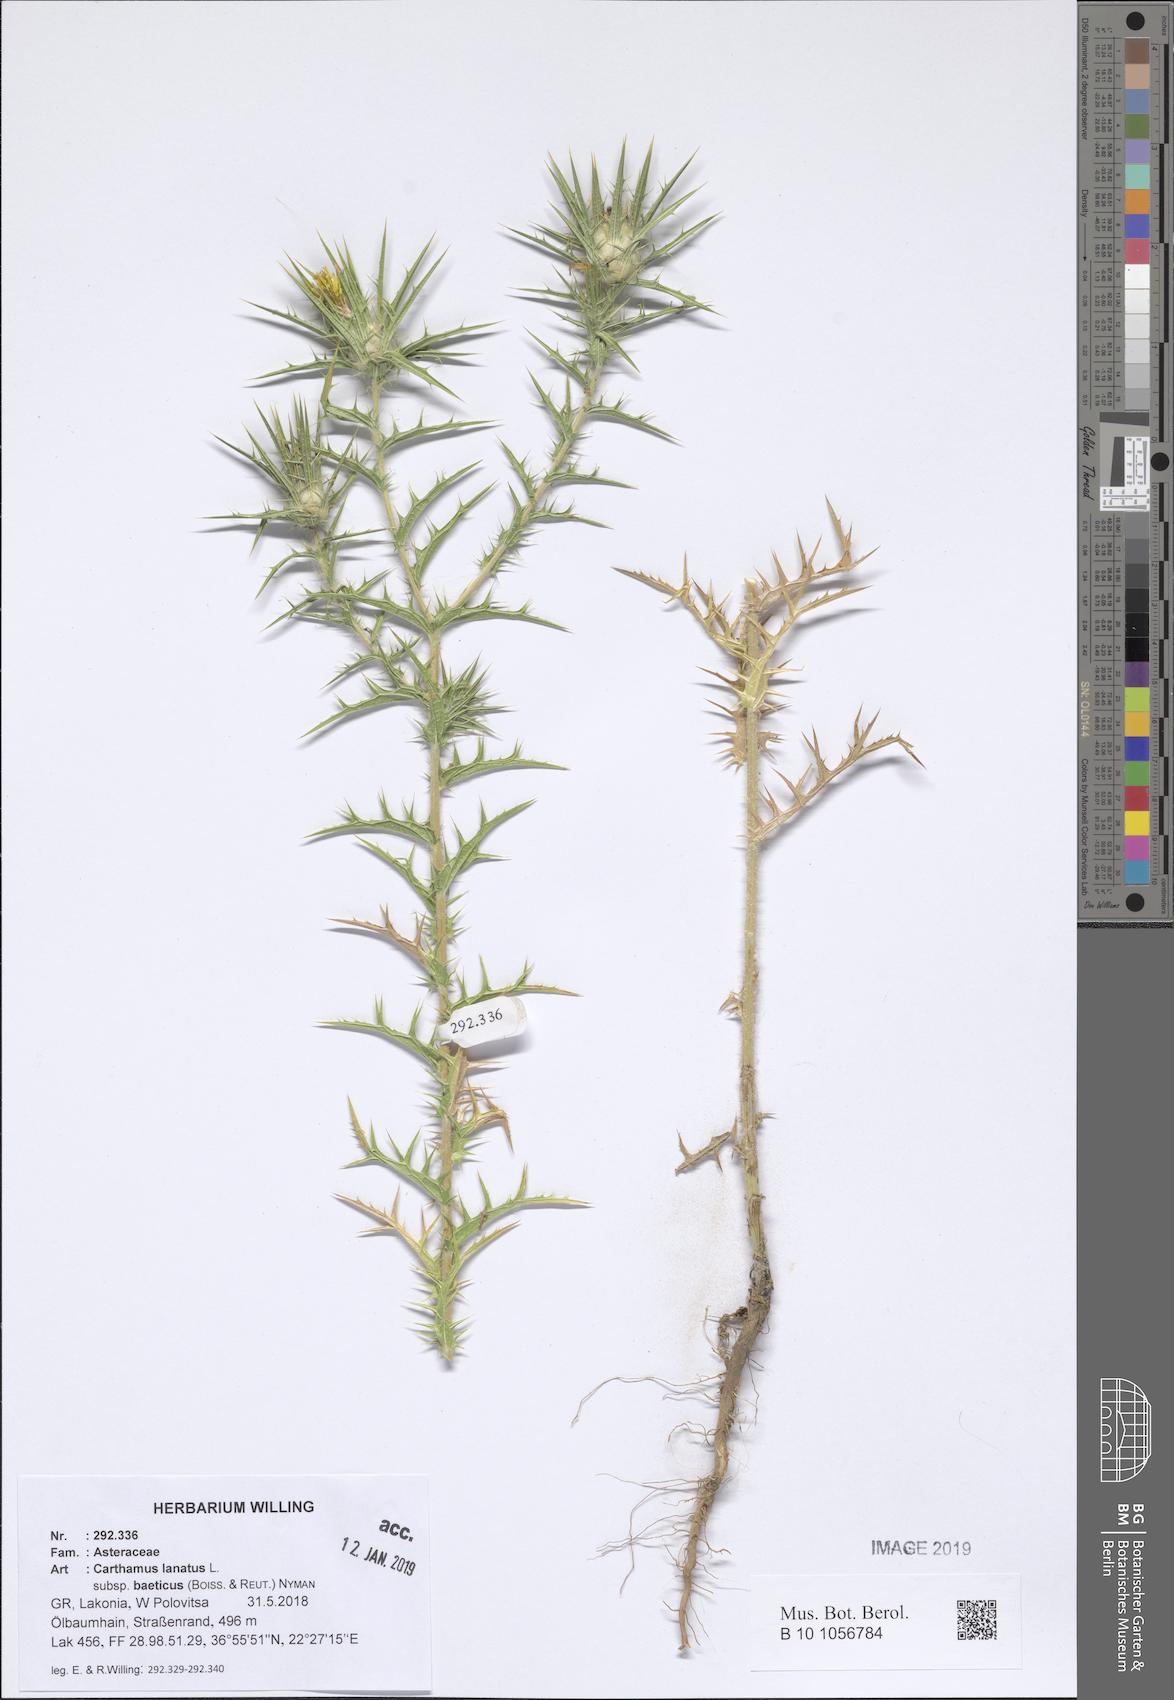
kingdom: Plantae
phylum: Tracheophyta
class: Magnoliopsida
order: Asterales
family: Asteraceae
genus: Carthamus
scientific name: Carthamus creticus
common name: Smooth distaff thistle
